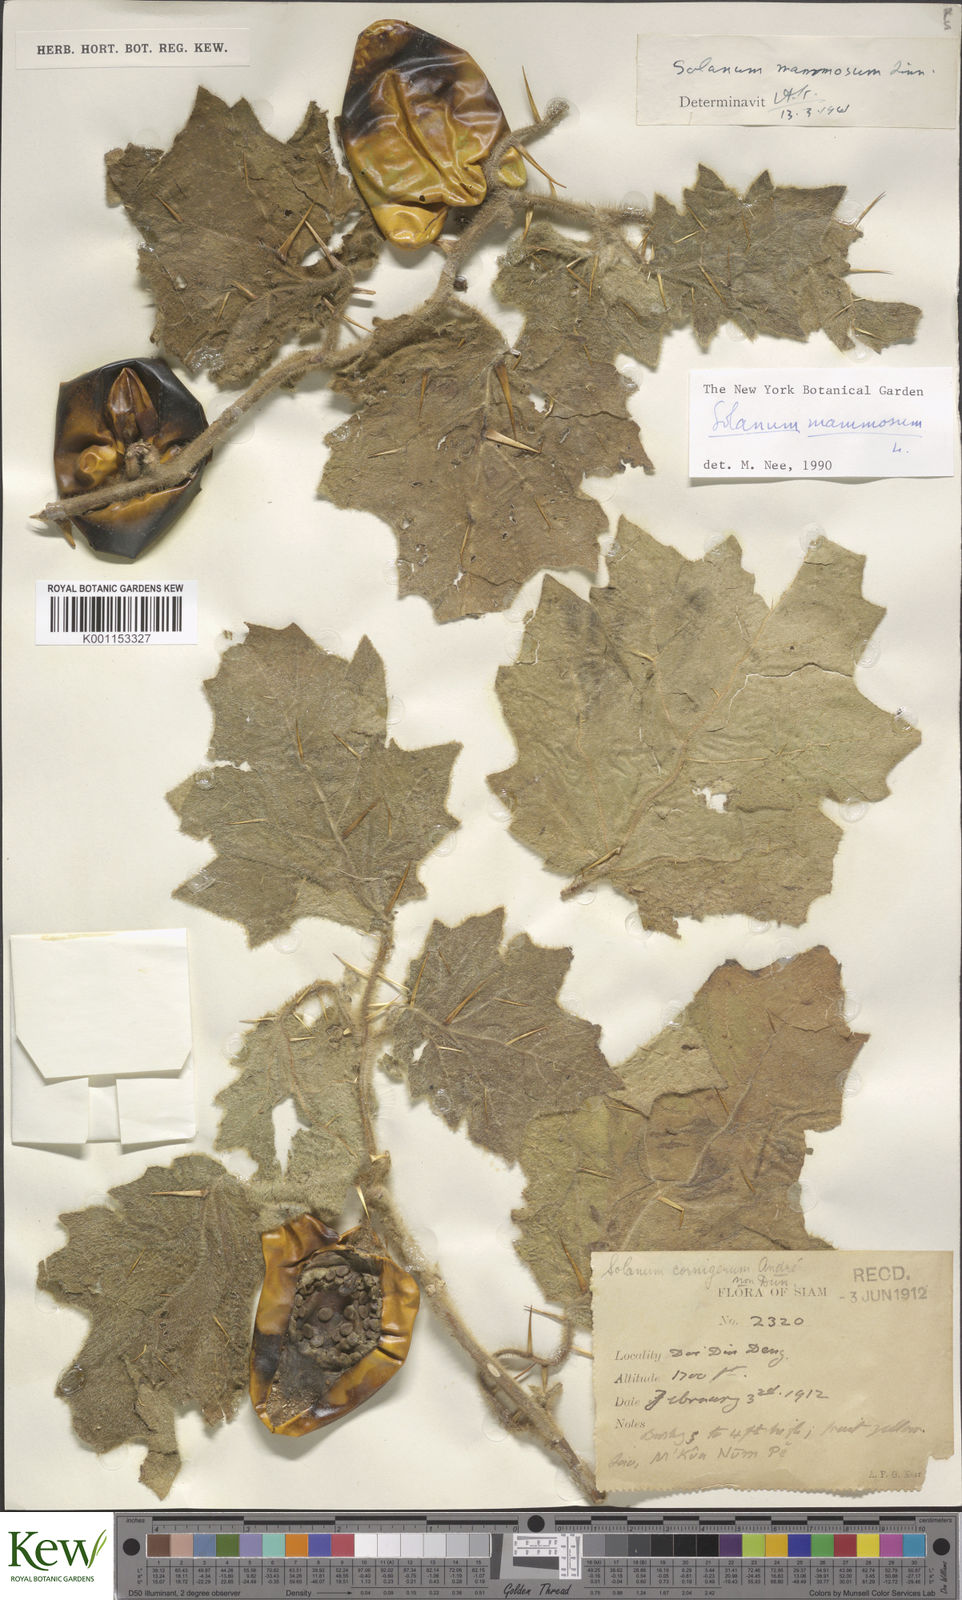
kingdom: Plantae
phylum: Tracheophyta
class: Magnoliopsida
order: Solanales
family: Solanaceae
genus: Solanum
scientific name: Solanum mammosum
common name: Nipple fruit
